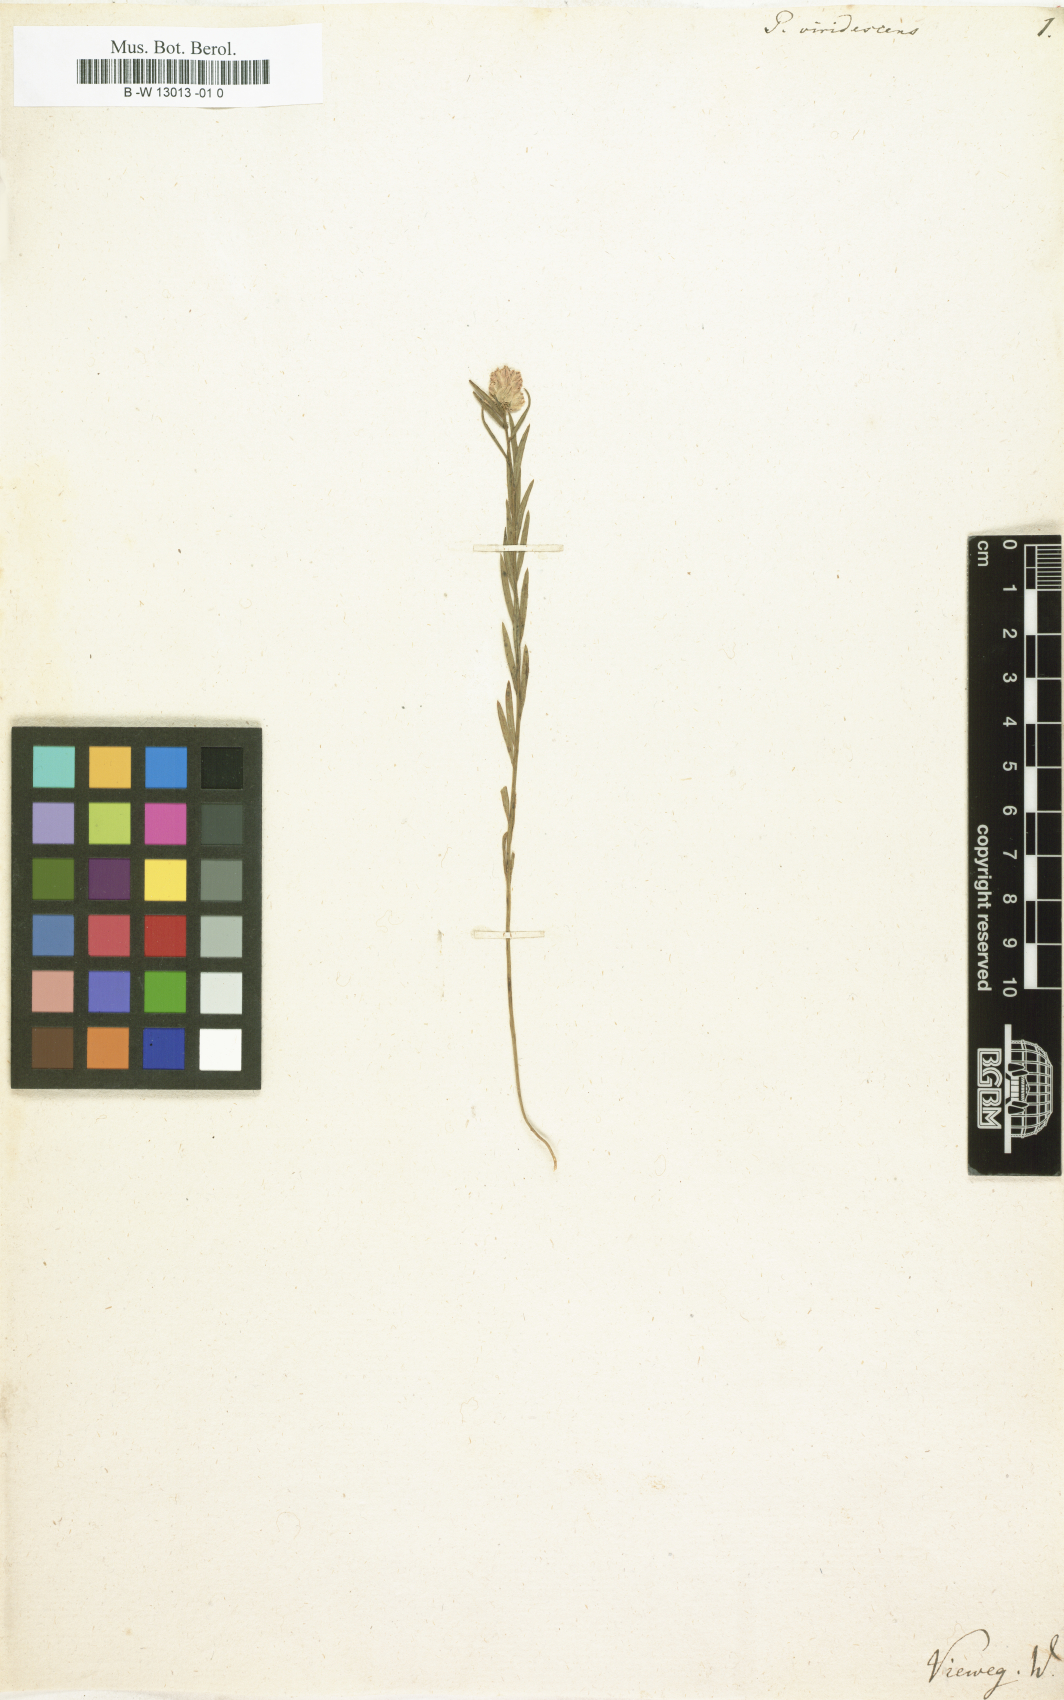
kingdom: Plantae
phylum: Tracheophyta
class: Magnoliopsida
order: Fabales
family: Polygalaceae
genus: Polygala
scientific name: Polygala
